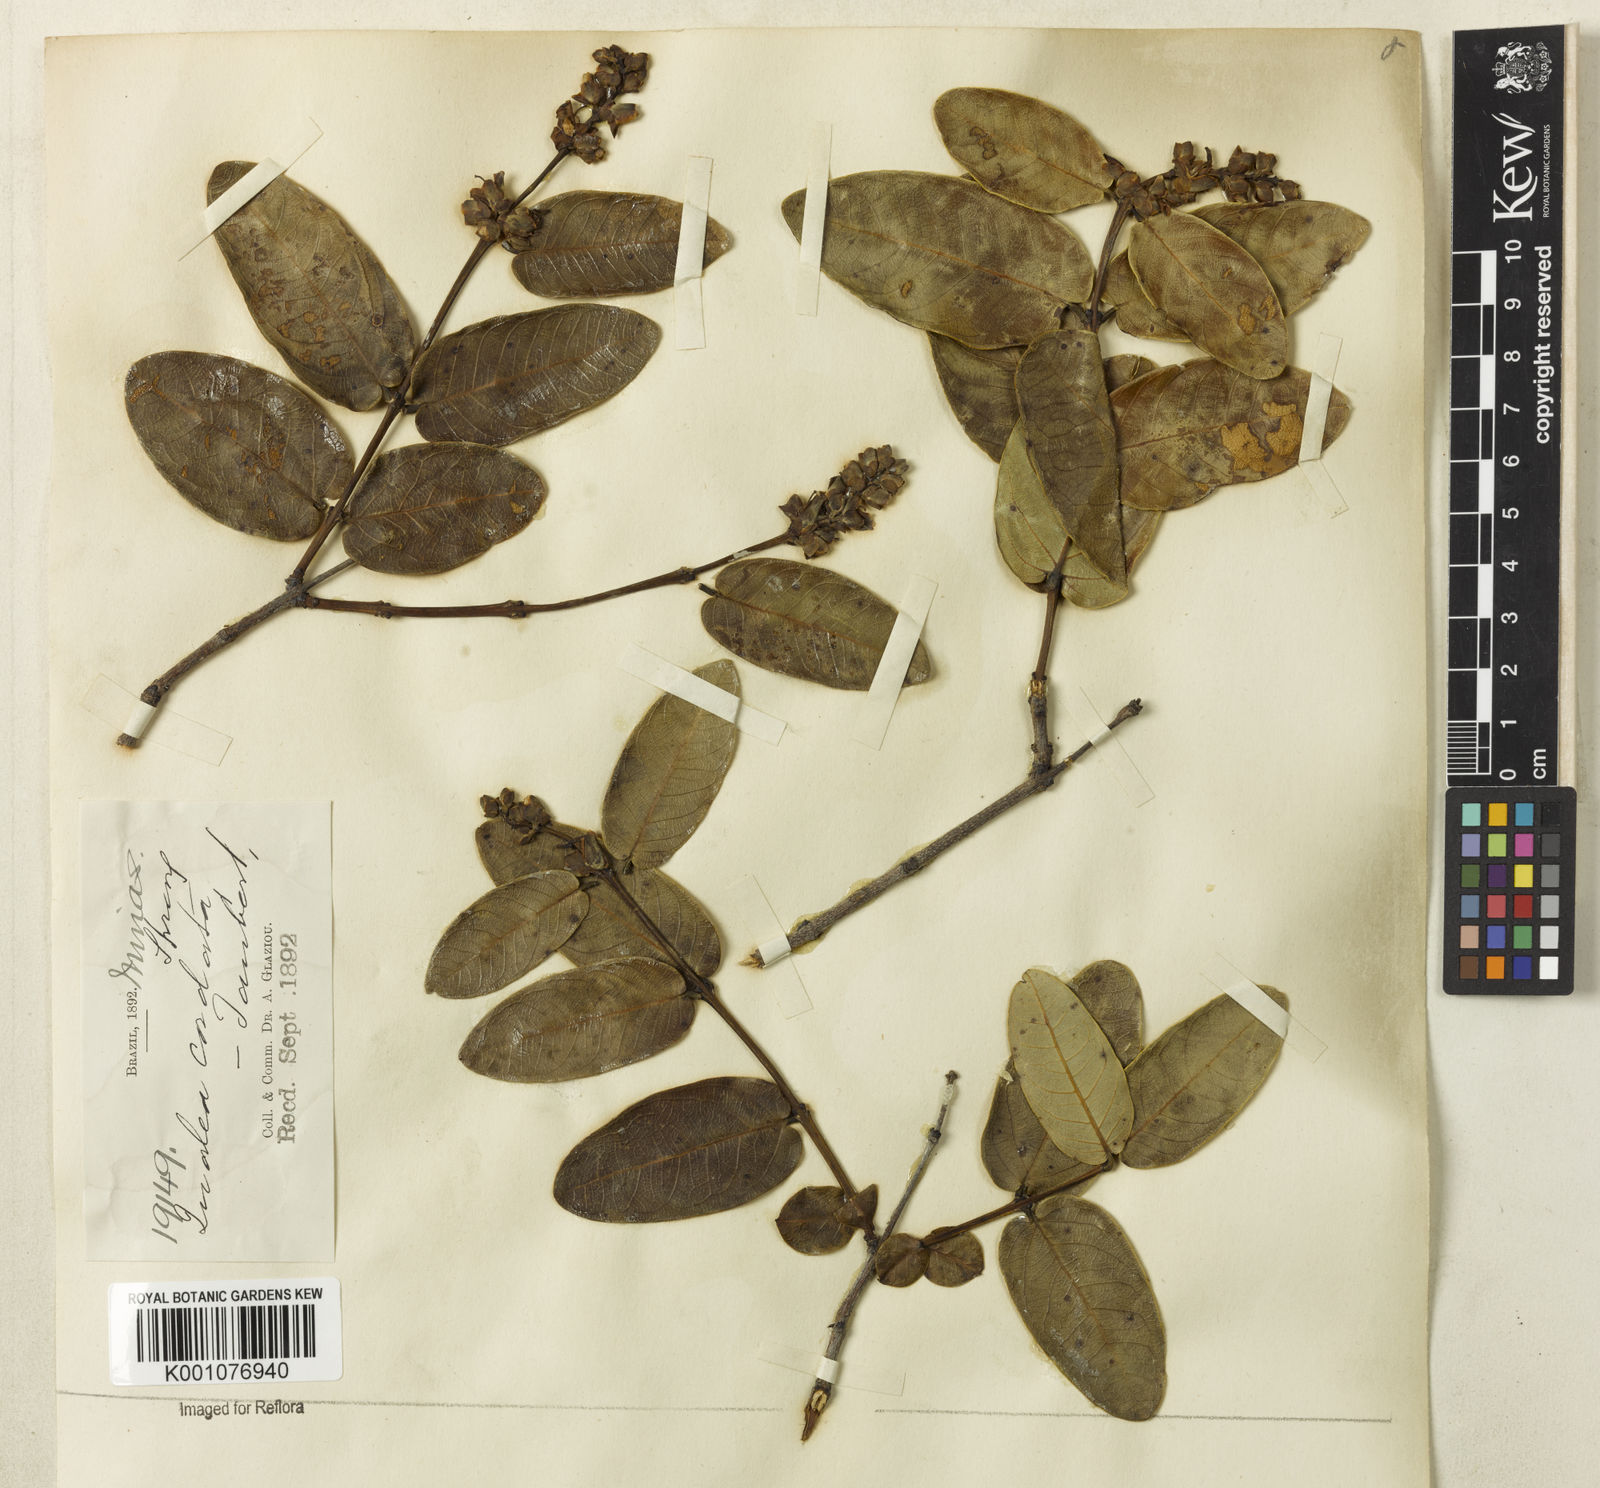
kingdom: Plantae
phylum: Tracheophyta
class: Magnoliopsida
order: Myrtales
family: Vochysiaceae
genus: Qualea
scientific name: Qualea cordata
